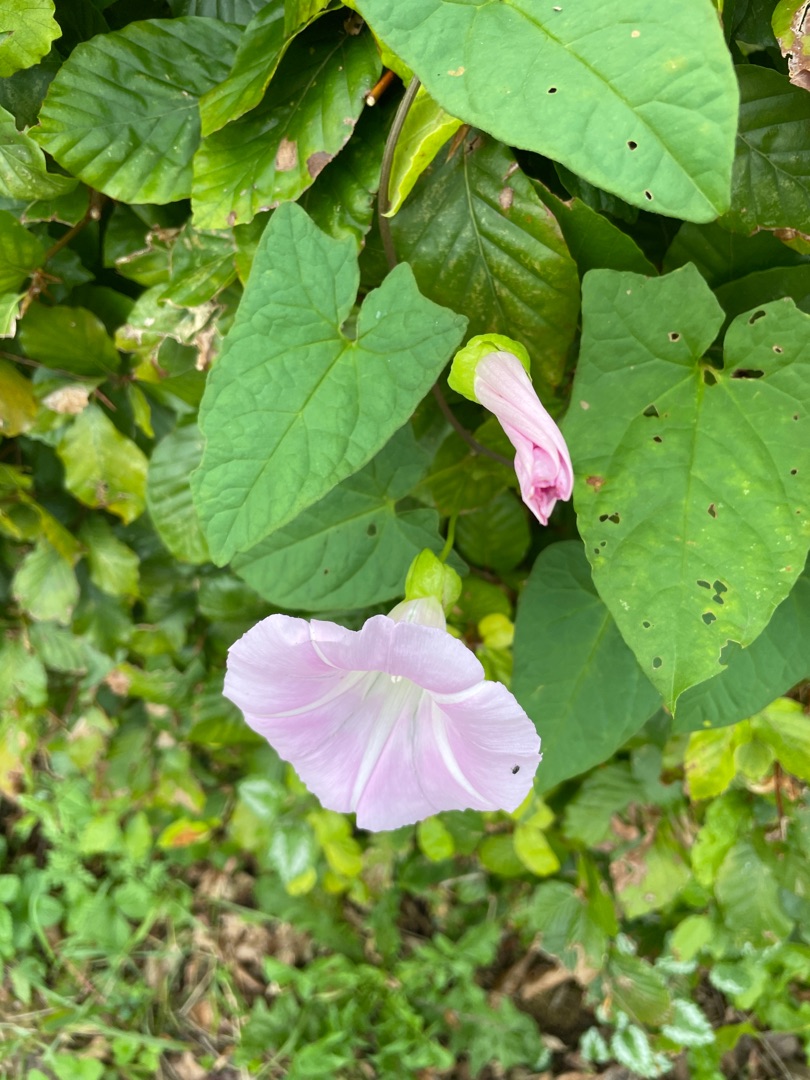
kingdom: Plantae
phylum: Tracheophyta
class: Magnoliopsida
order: Solanales
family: Convolvulaceae
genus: Calystegia
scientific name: Calystegia pulchra
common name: Have-snerle
